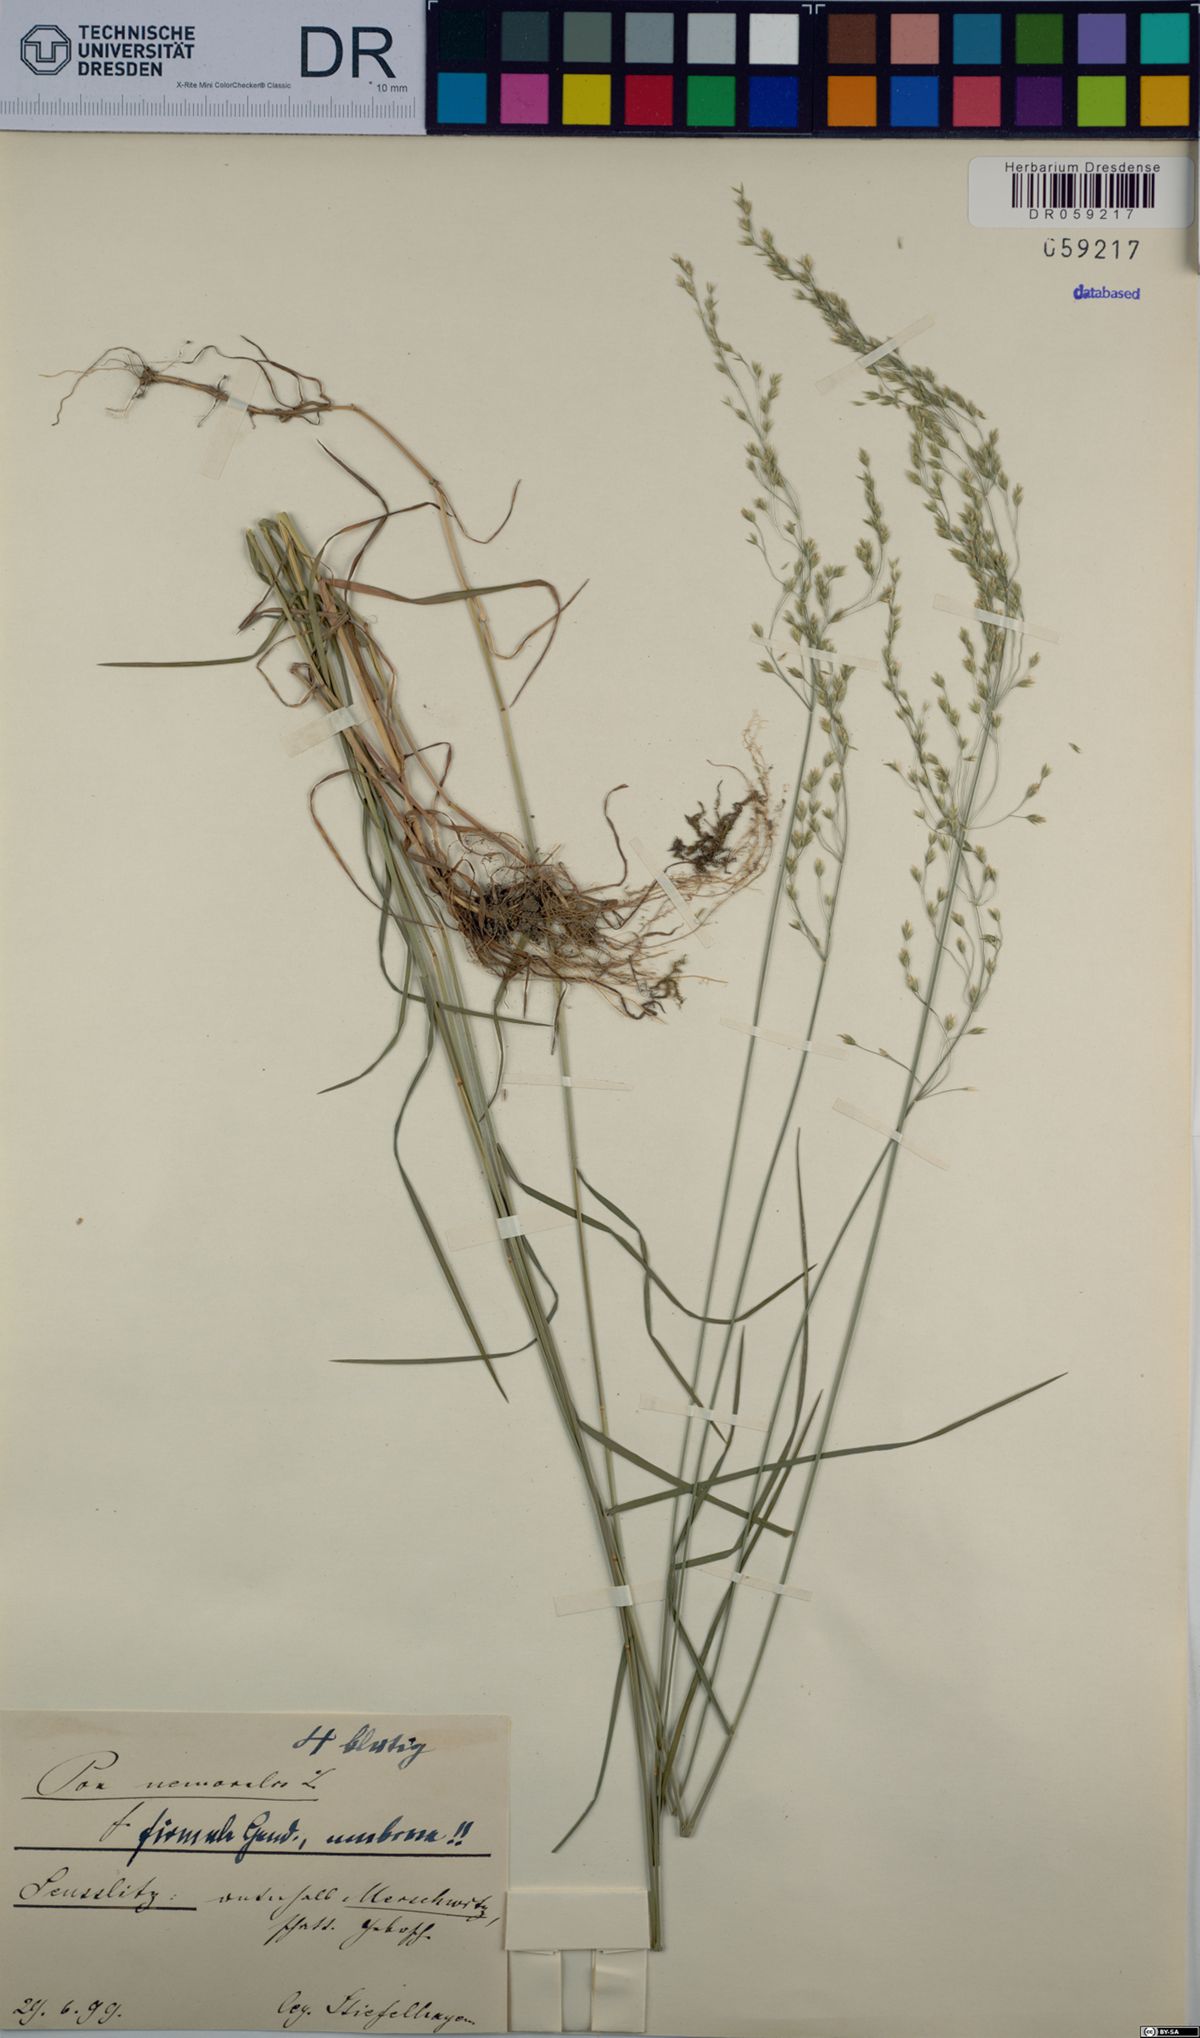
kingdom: Plantae
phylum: Tracheophyta
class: Liliopsida
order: Poales
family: Poaceae
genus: Poa
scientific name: Poa nemoralis
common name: Wood bluegrass
